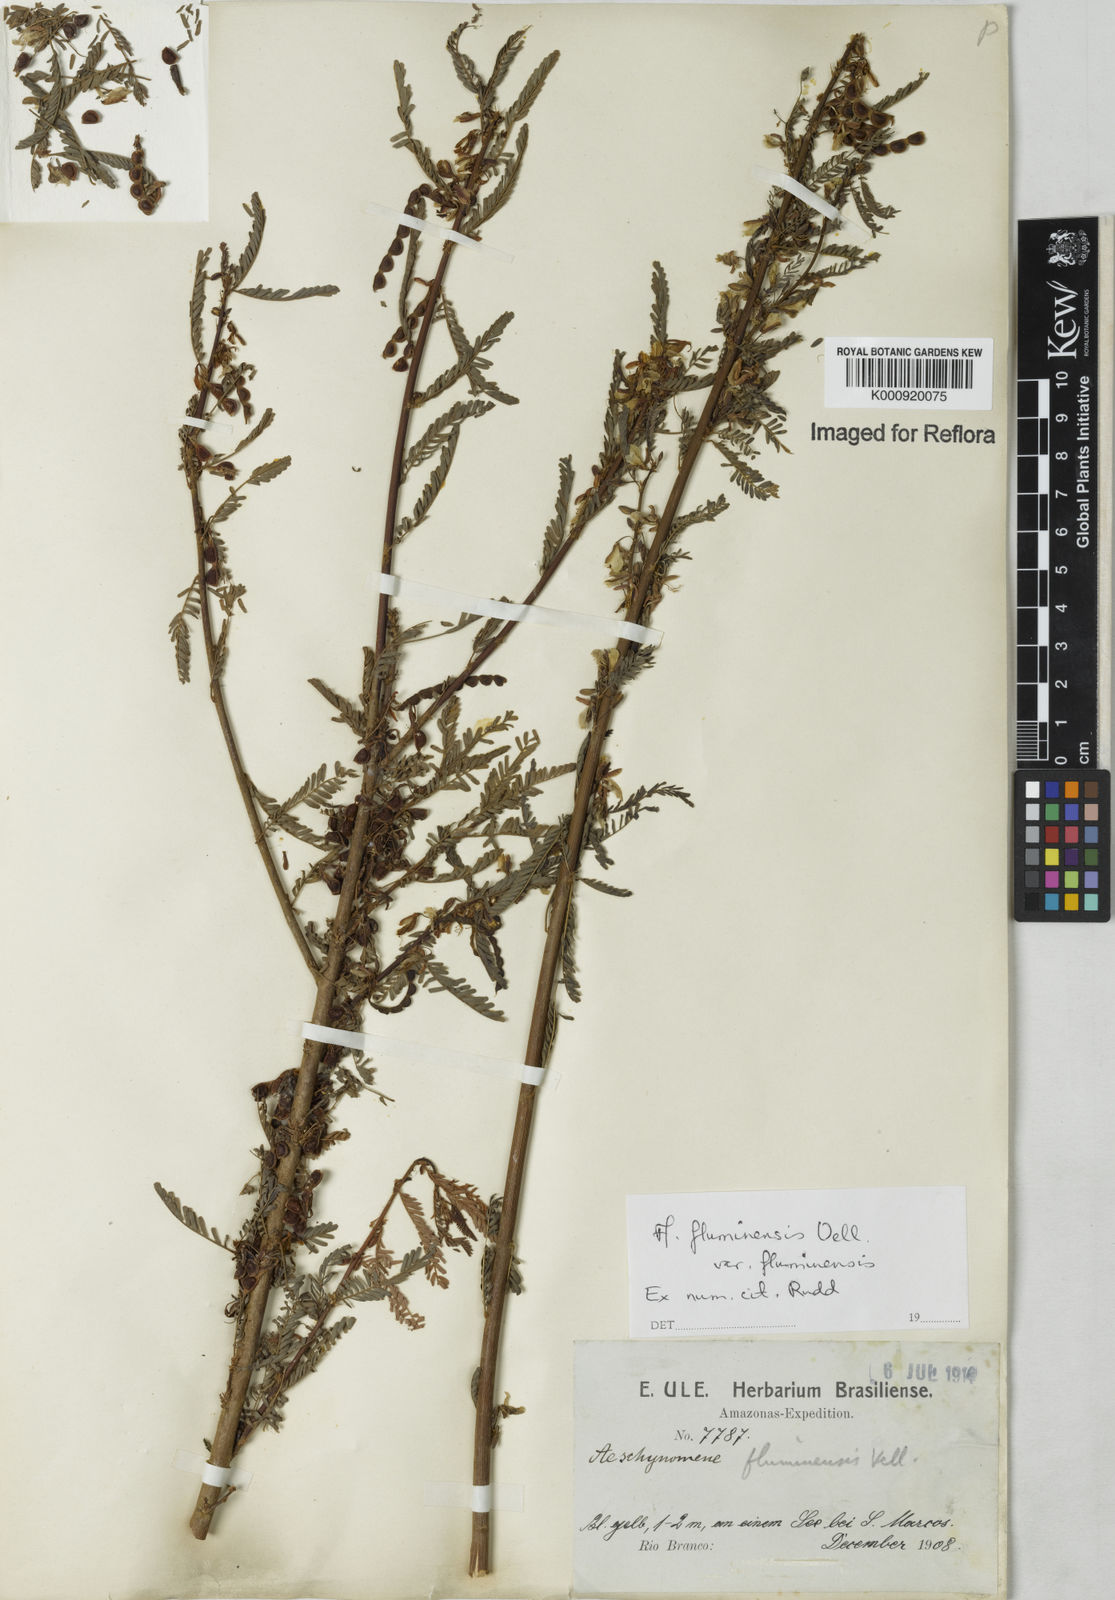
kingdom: Plantae
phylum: Tracheophyta
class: Magnoliopsida
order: Fabales
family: Fabaceae
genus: Aeschynomene
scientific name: Aeschynomene fluminensis
